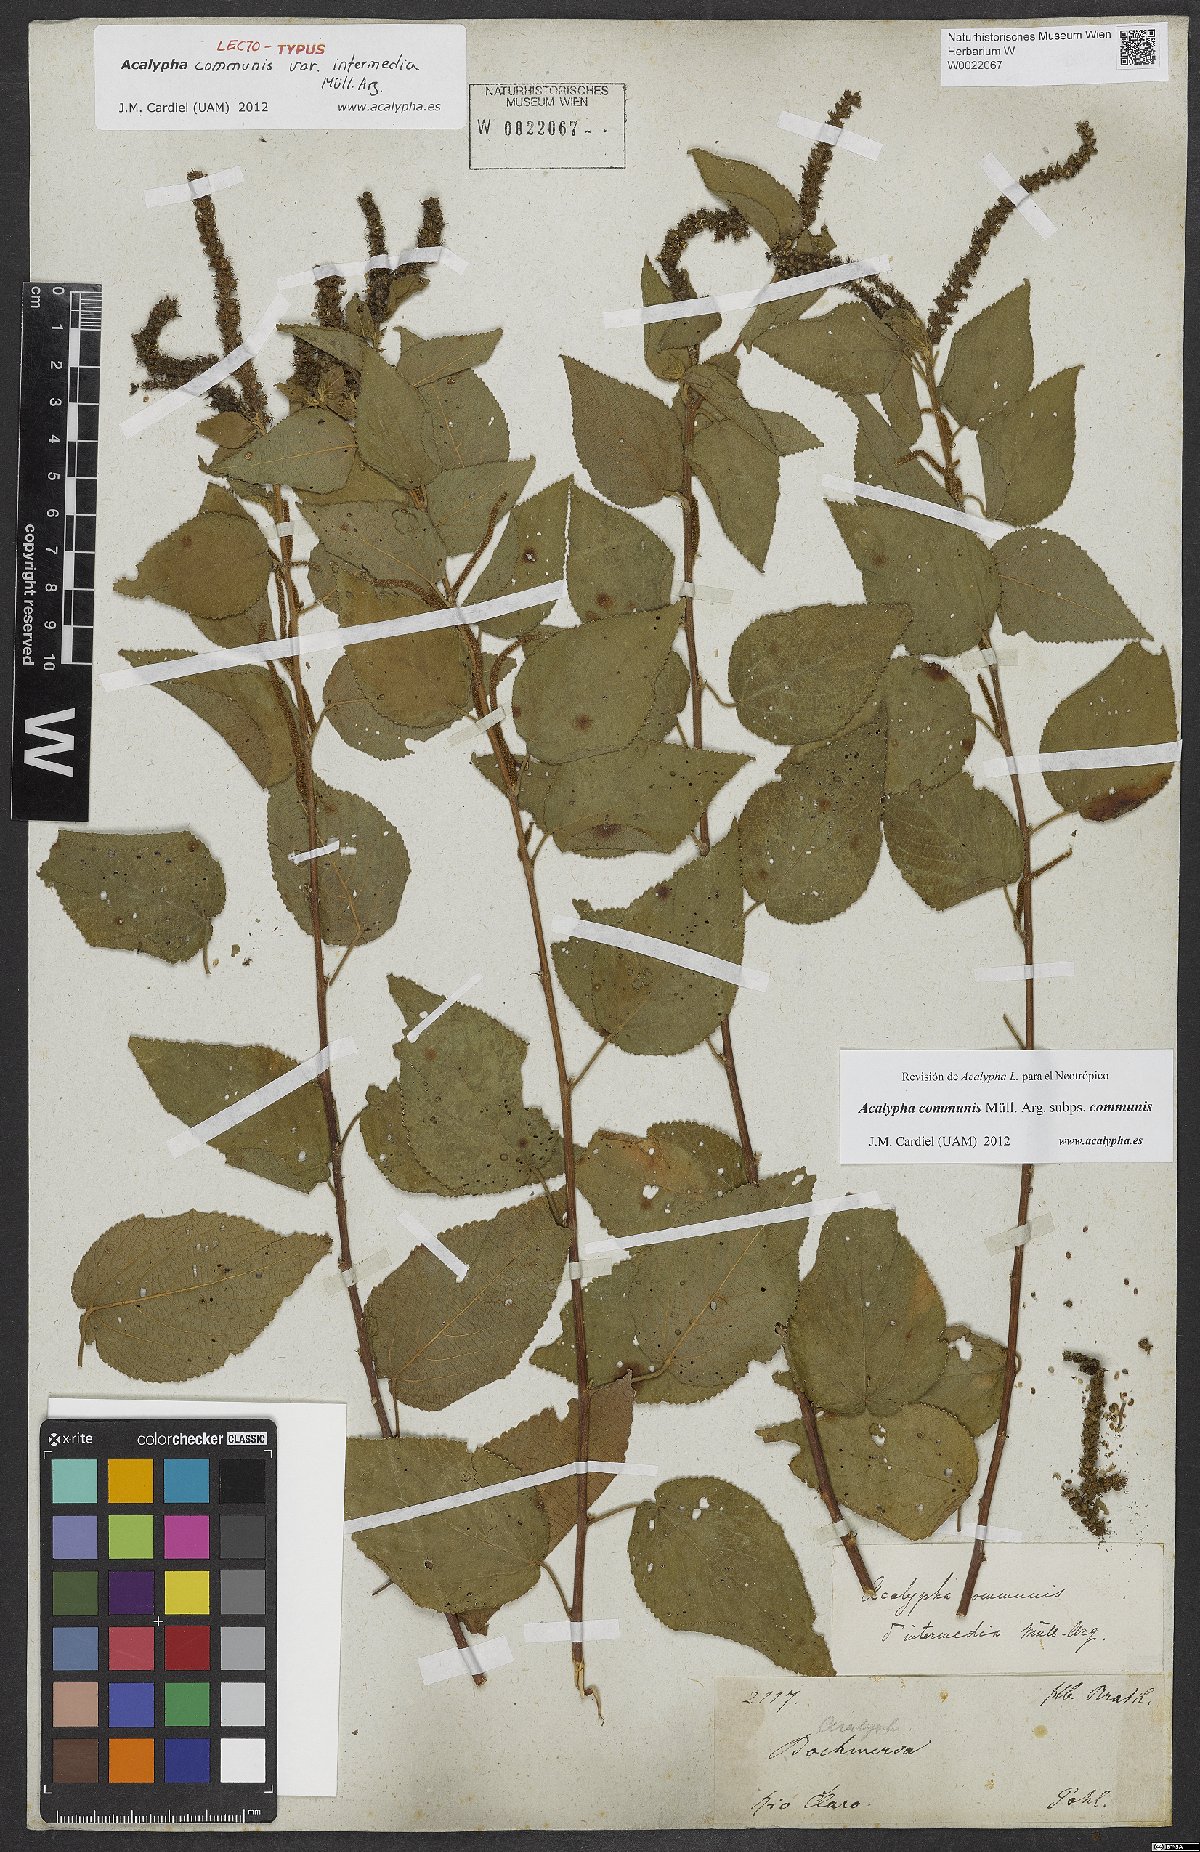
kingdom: Plantae
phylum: Tracheophyta
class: Magnoliopsida
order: Malpighiales
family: Euphorbiaceae
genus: Acalypha
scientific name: Acalypha communis
